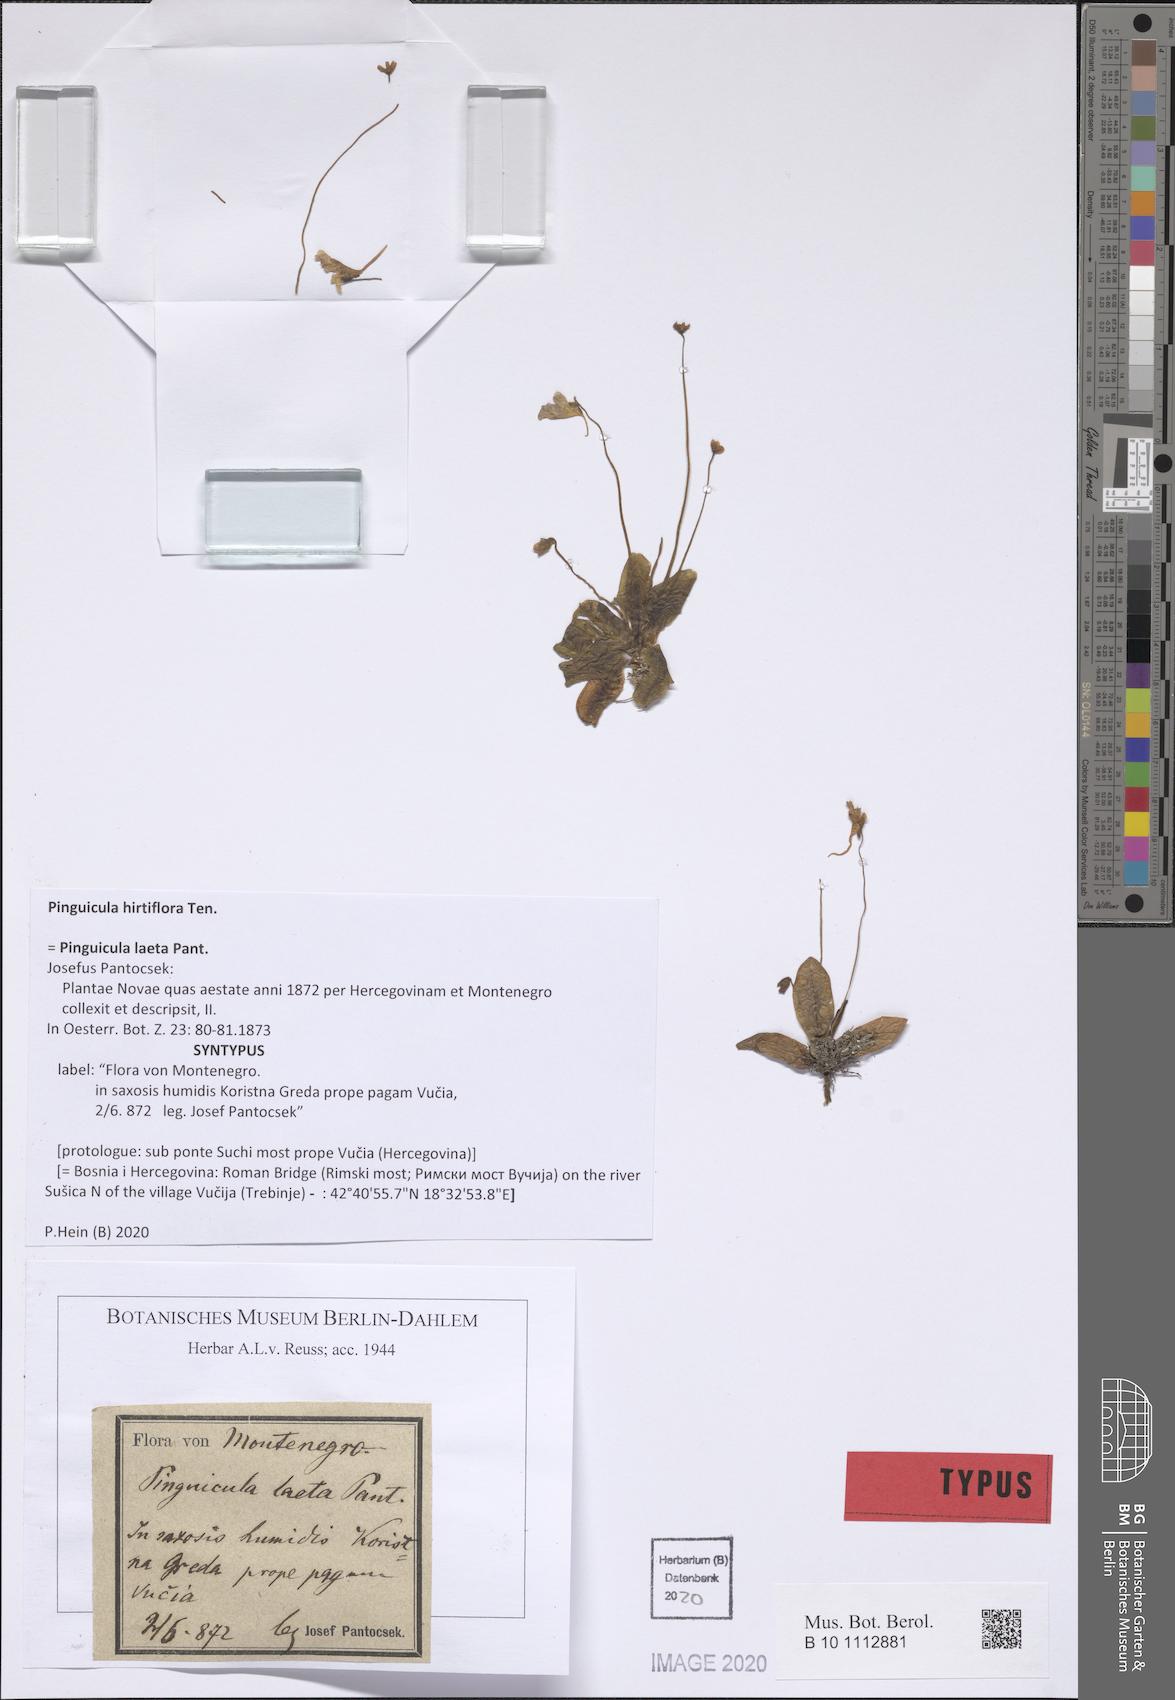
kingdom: Plantae
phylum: Tracheophyta
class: Magnoliopsida
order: Lamiales
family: Lentibulariaceae
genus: Pinguicula
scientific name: Pinguicula crystallina
